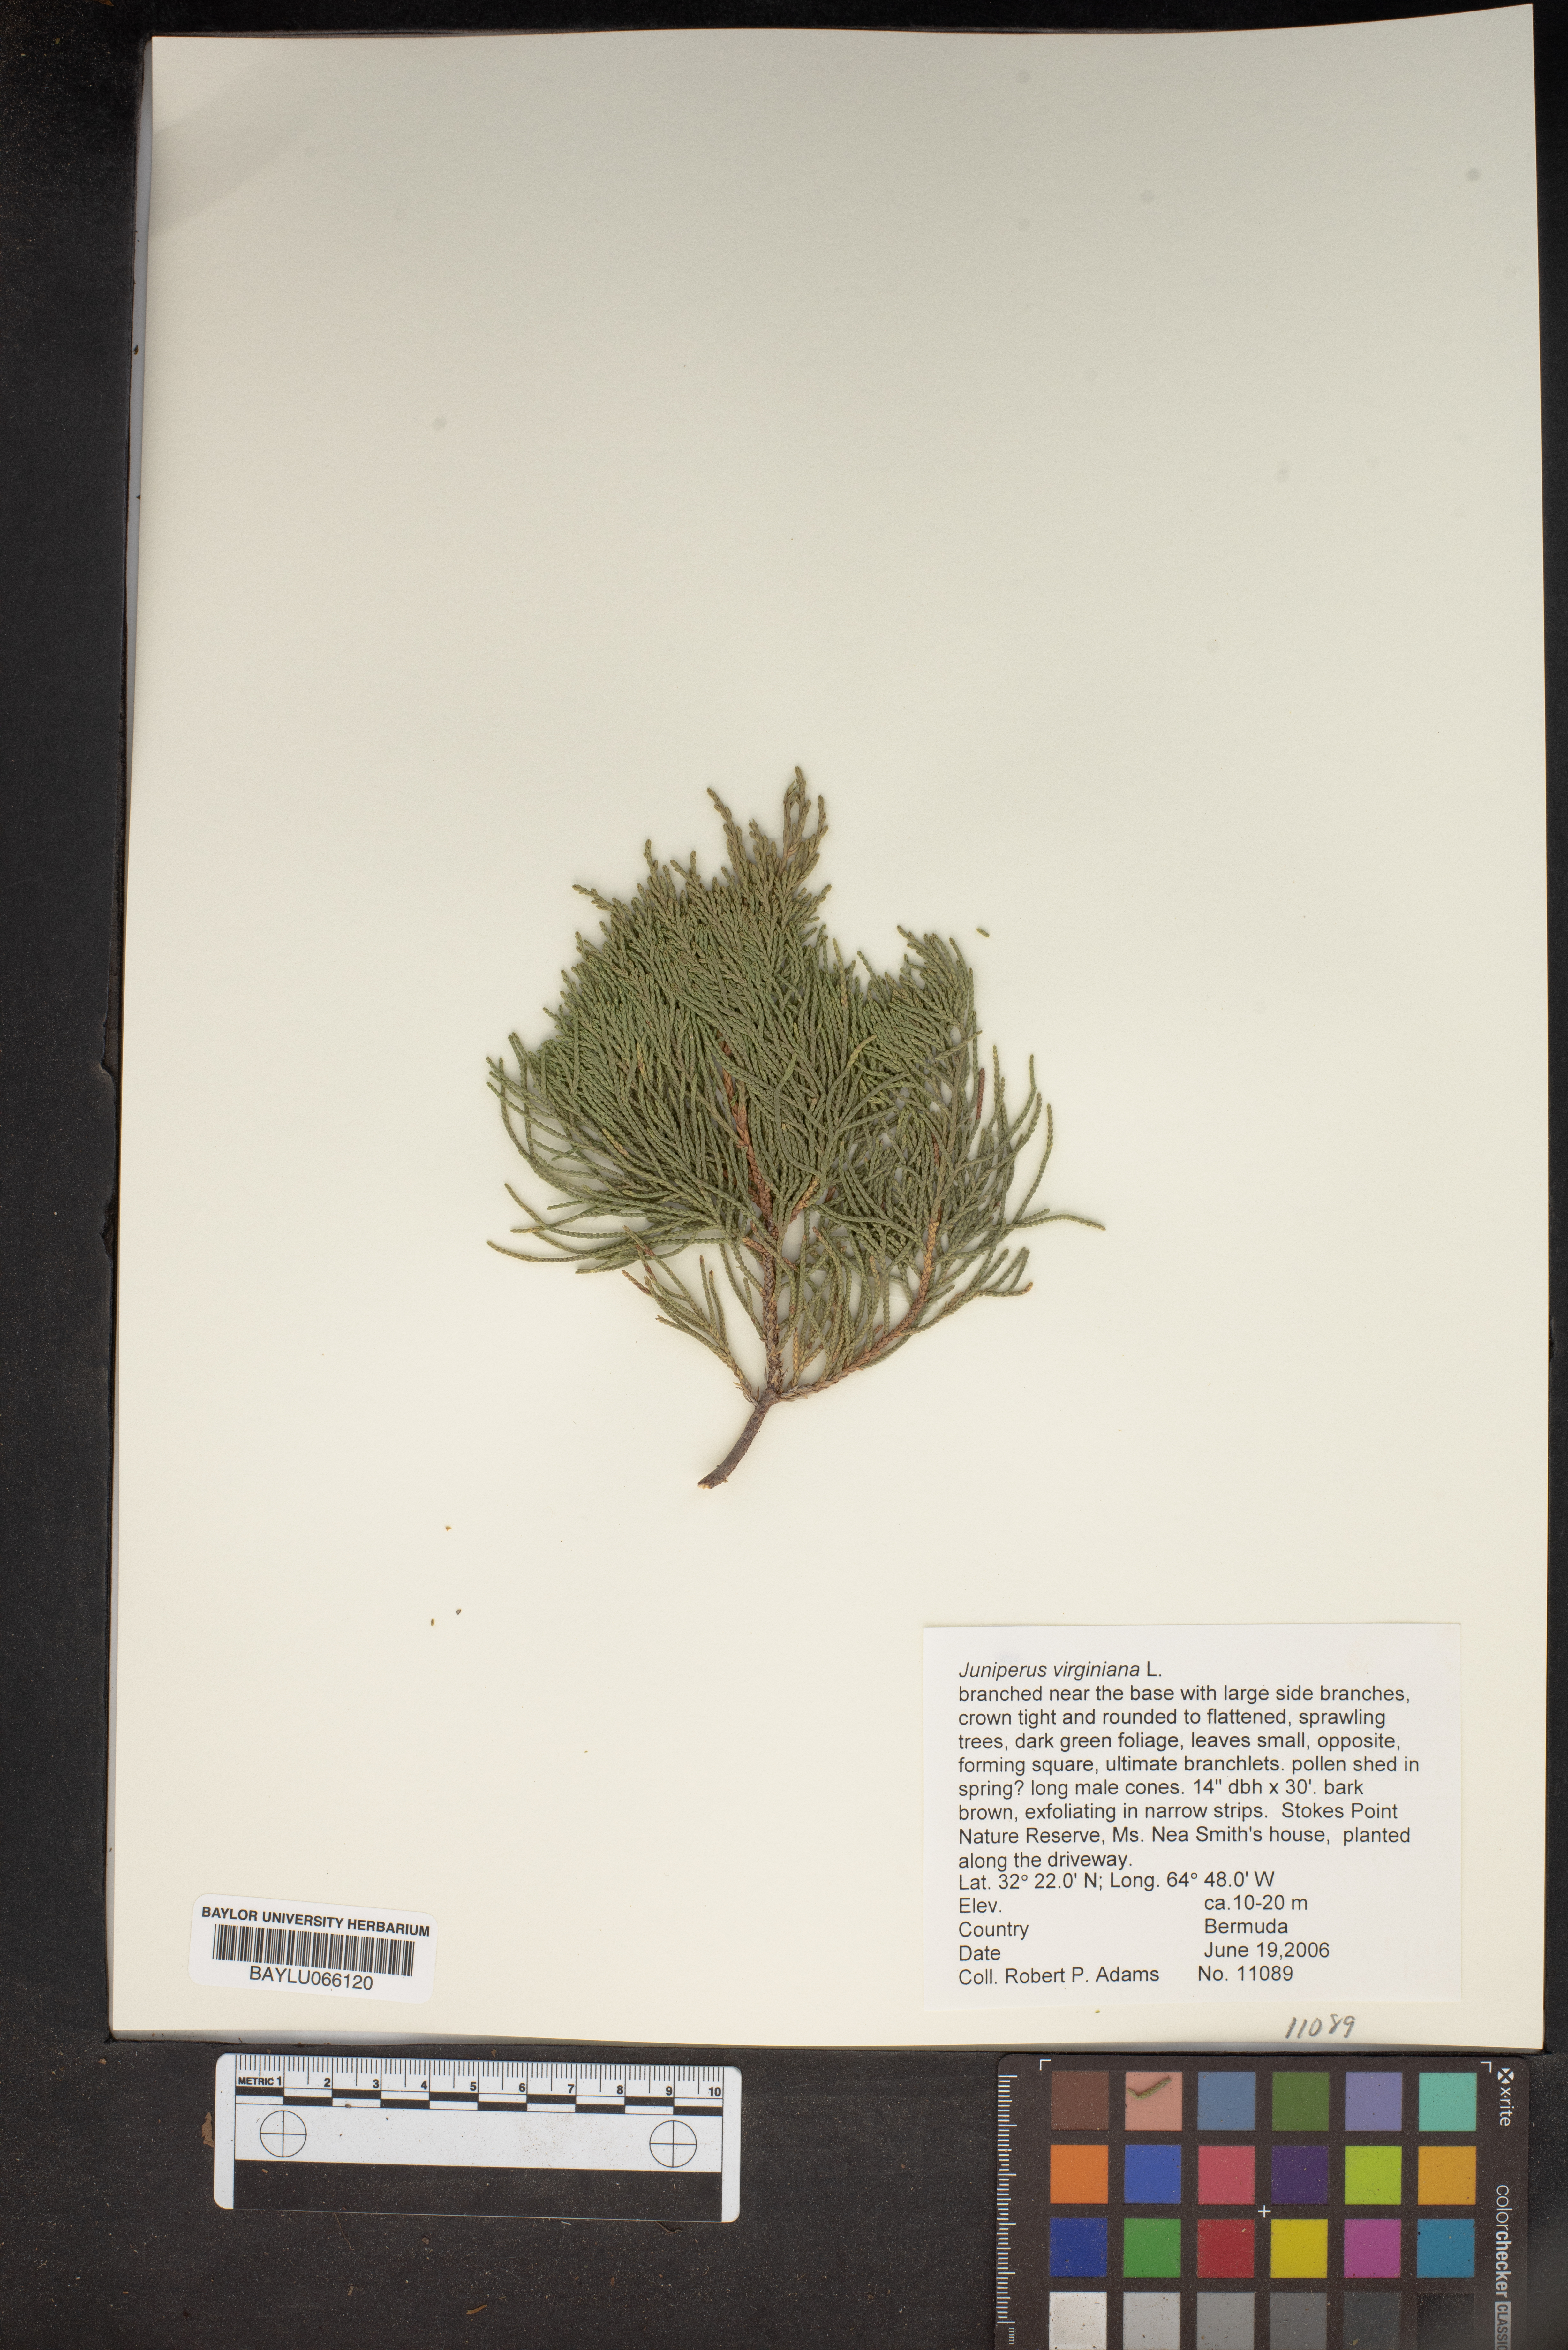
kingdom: Plantae
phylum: Tracheophyta
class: Pinopsida
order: Pinales
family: Cupressaceae
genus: Juniperus
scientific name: Juniperus virginiana
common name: Red juniper
